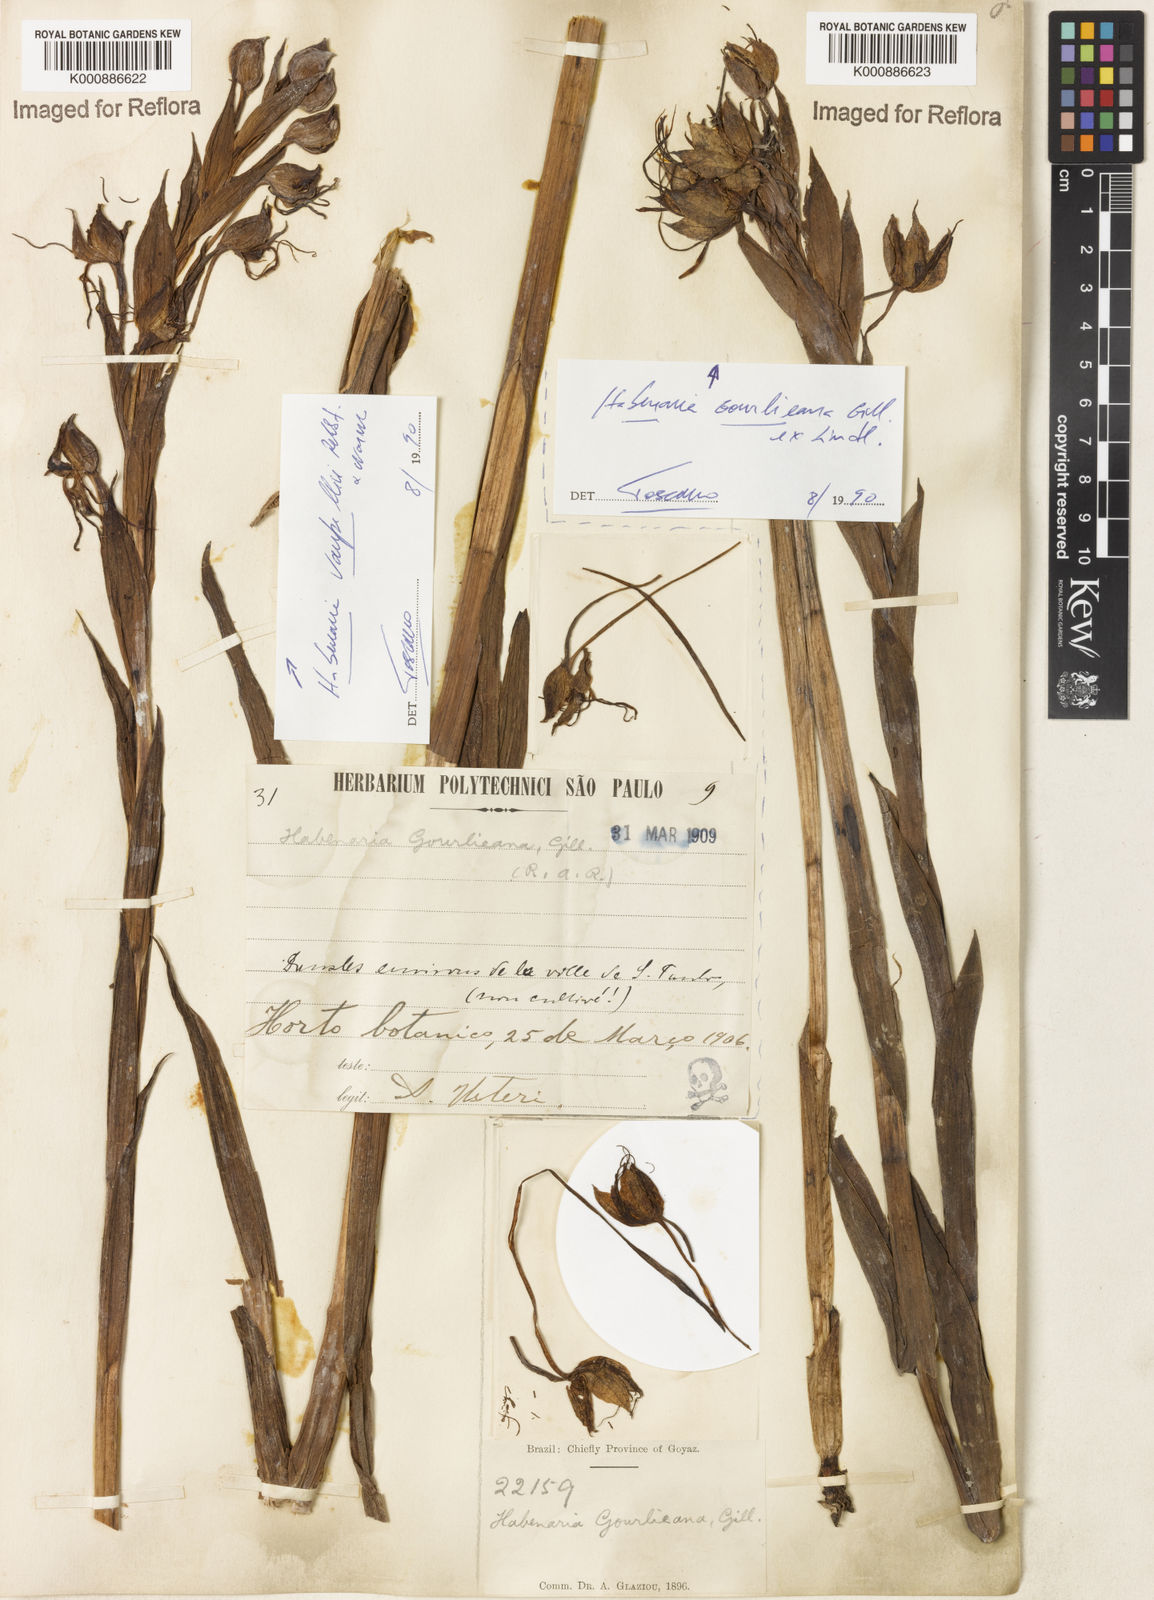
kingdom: Plantae
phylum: Tracheophyta
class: Liliopsida
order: Asparagales
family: Orchidaceae
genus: Habenaria
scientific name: Habenaria gourlieana
